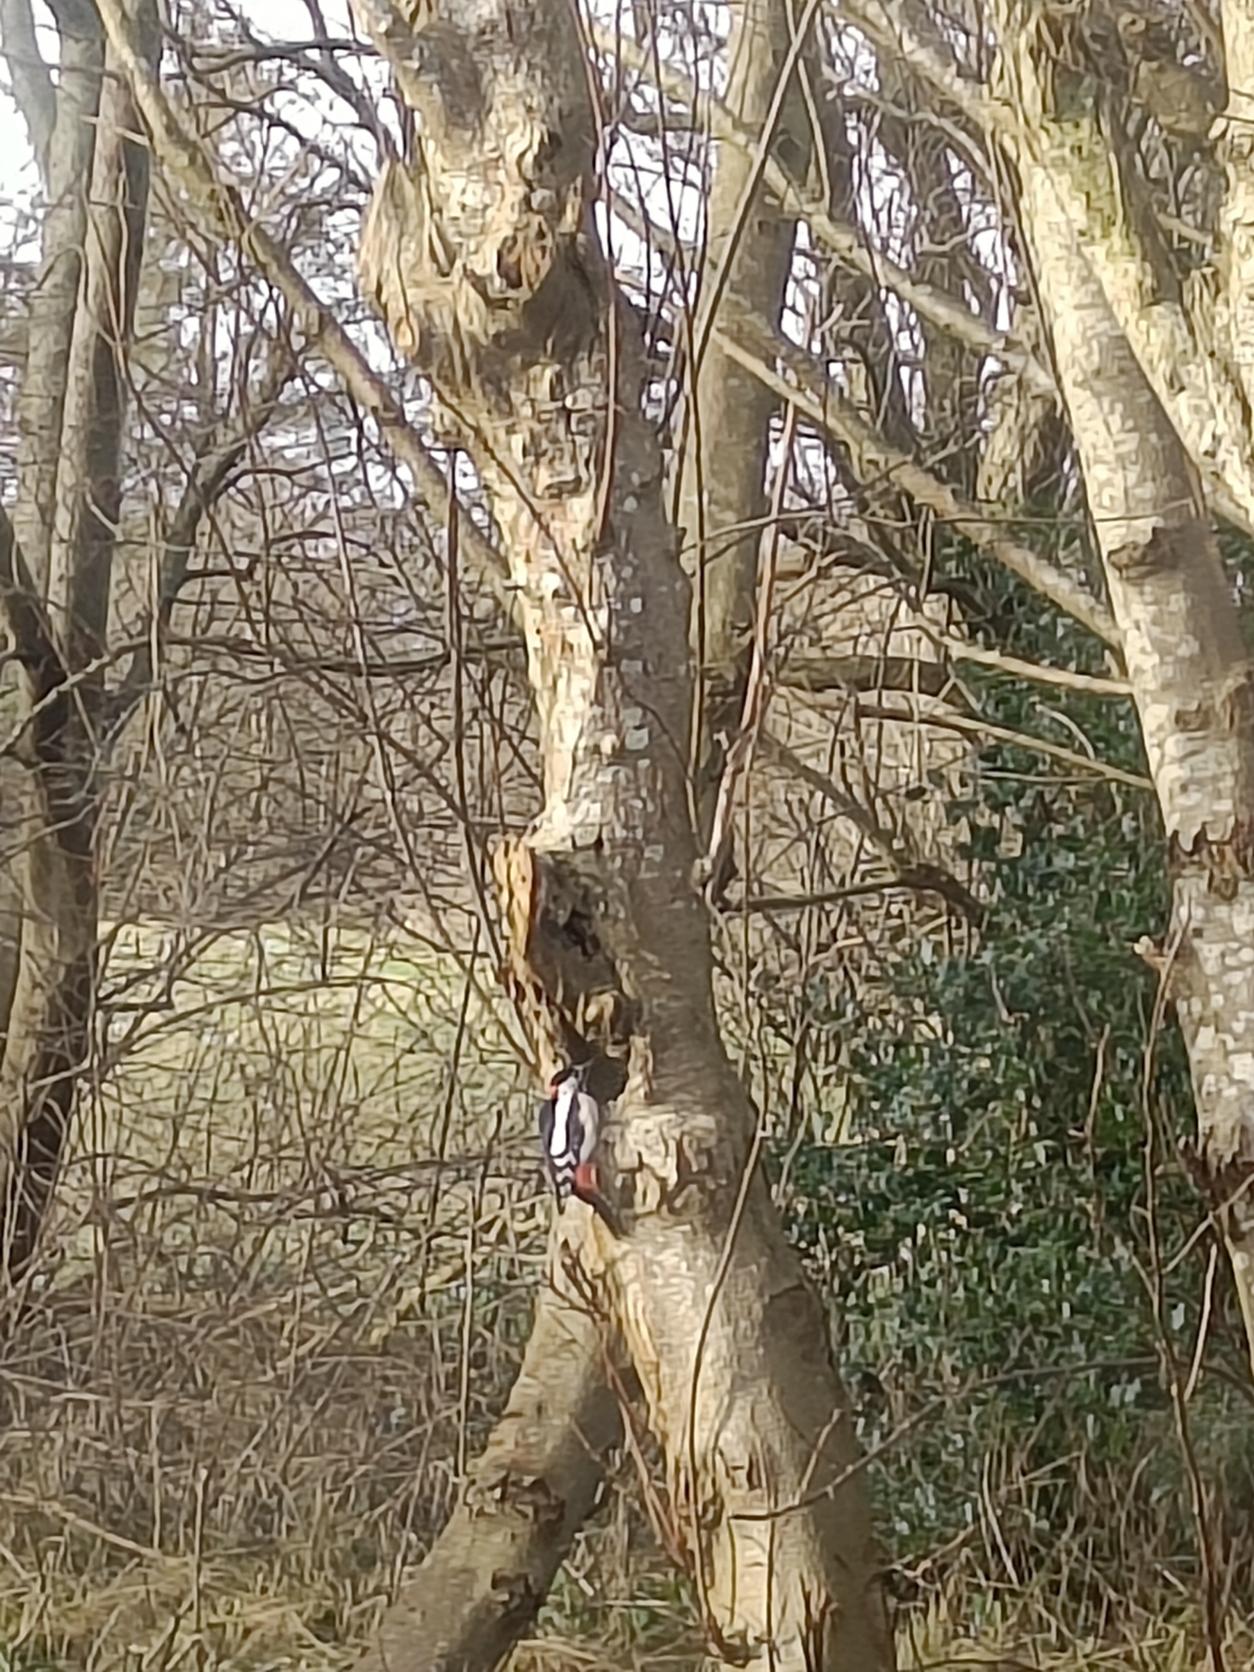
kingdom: Animalia
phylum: Chordata
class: Aves
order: Piciformes
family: Picidae
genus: Dendrocopos
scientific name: Dendrocopos major
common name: Stor flagspætte
